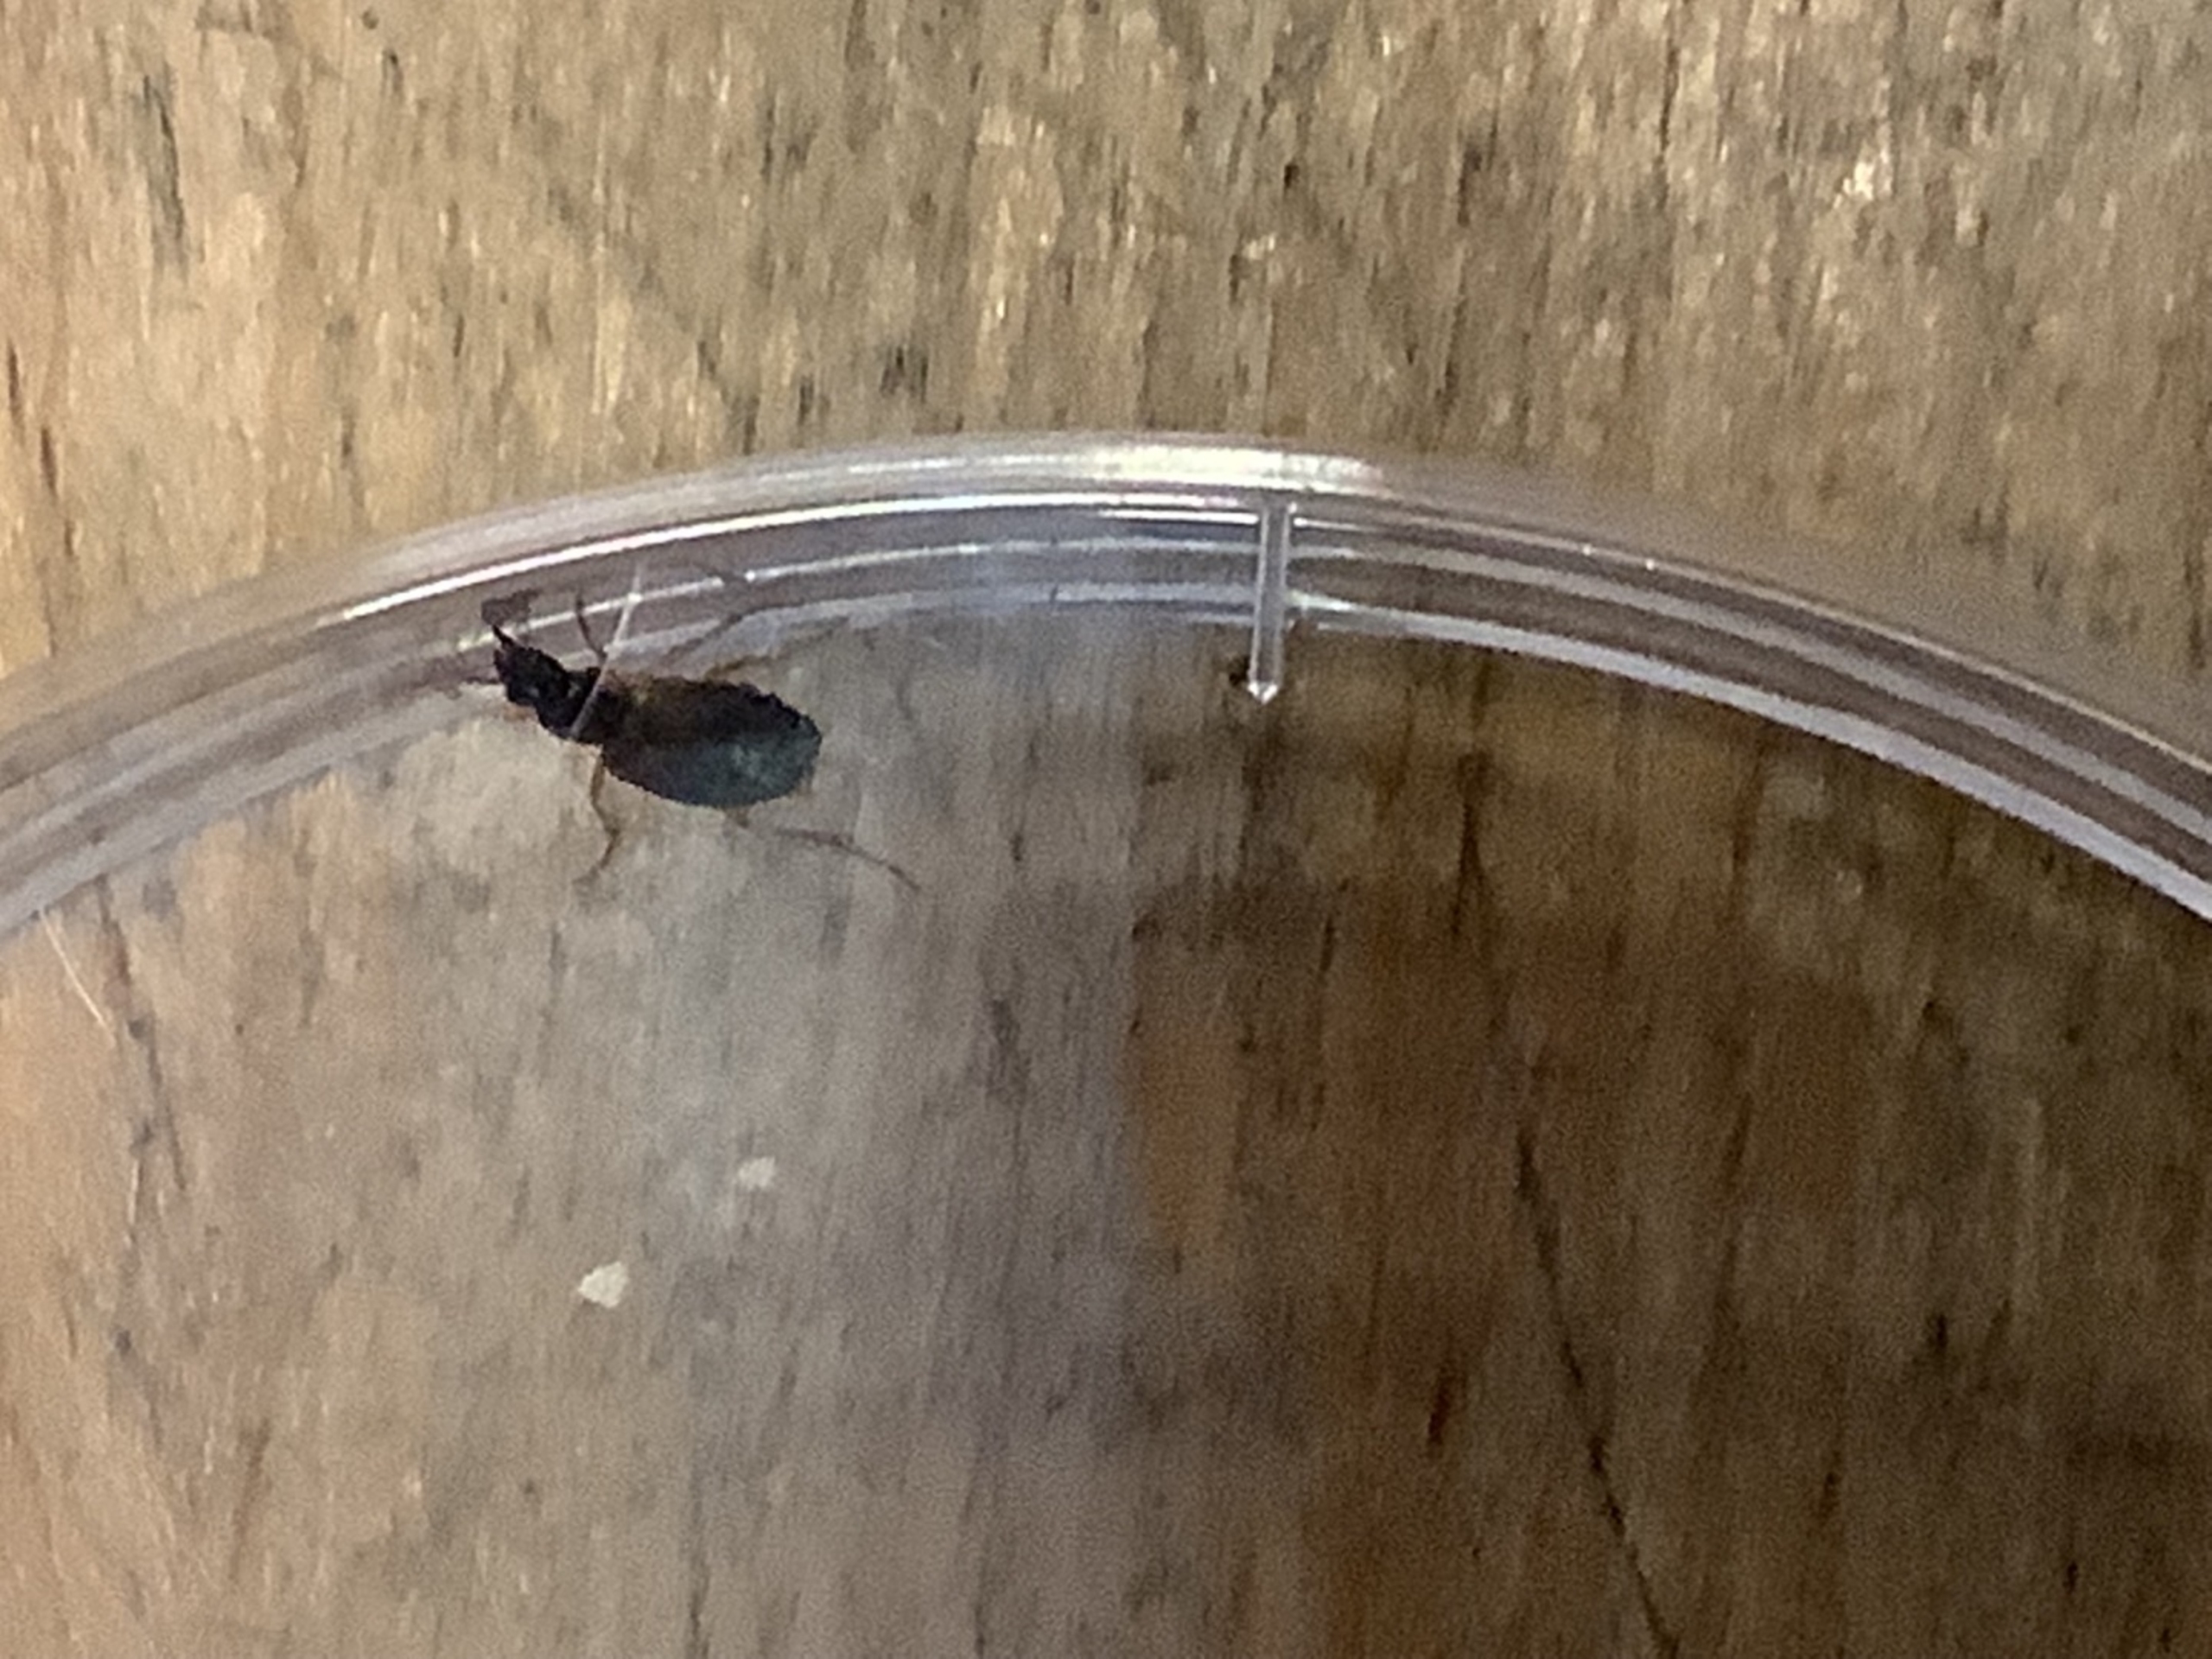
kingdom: Animalia
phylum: Arthropoda
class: Insecta
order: Coleoptera
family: Carabidae
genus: Anchomenus
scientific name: Anchomenus dorsalis
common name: Spraglet kvikløber
